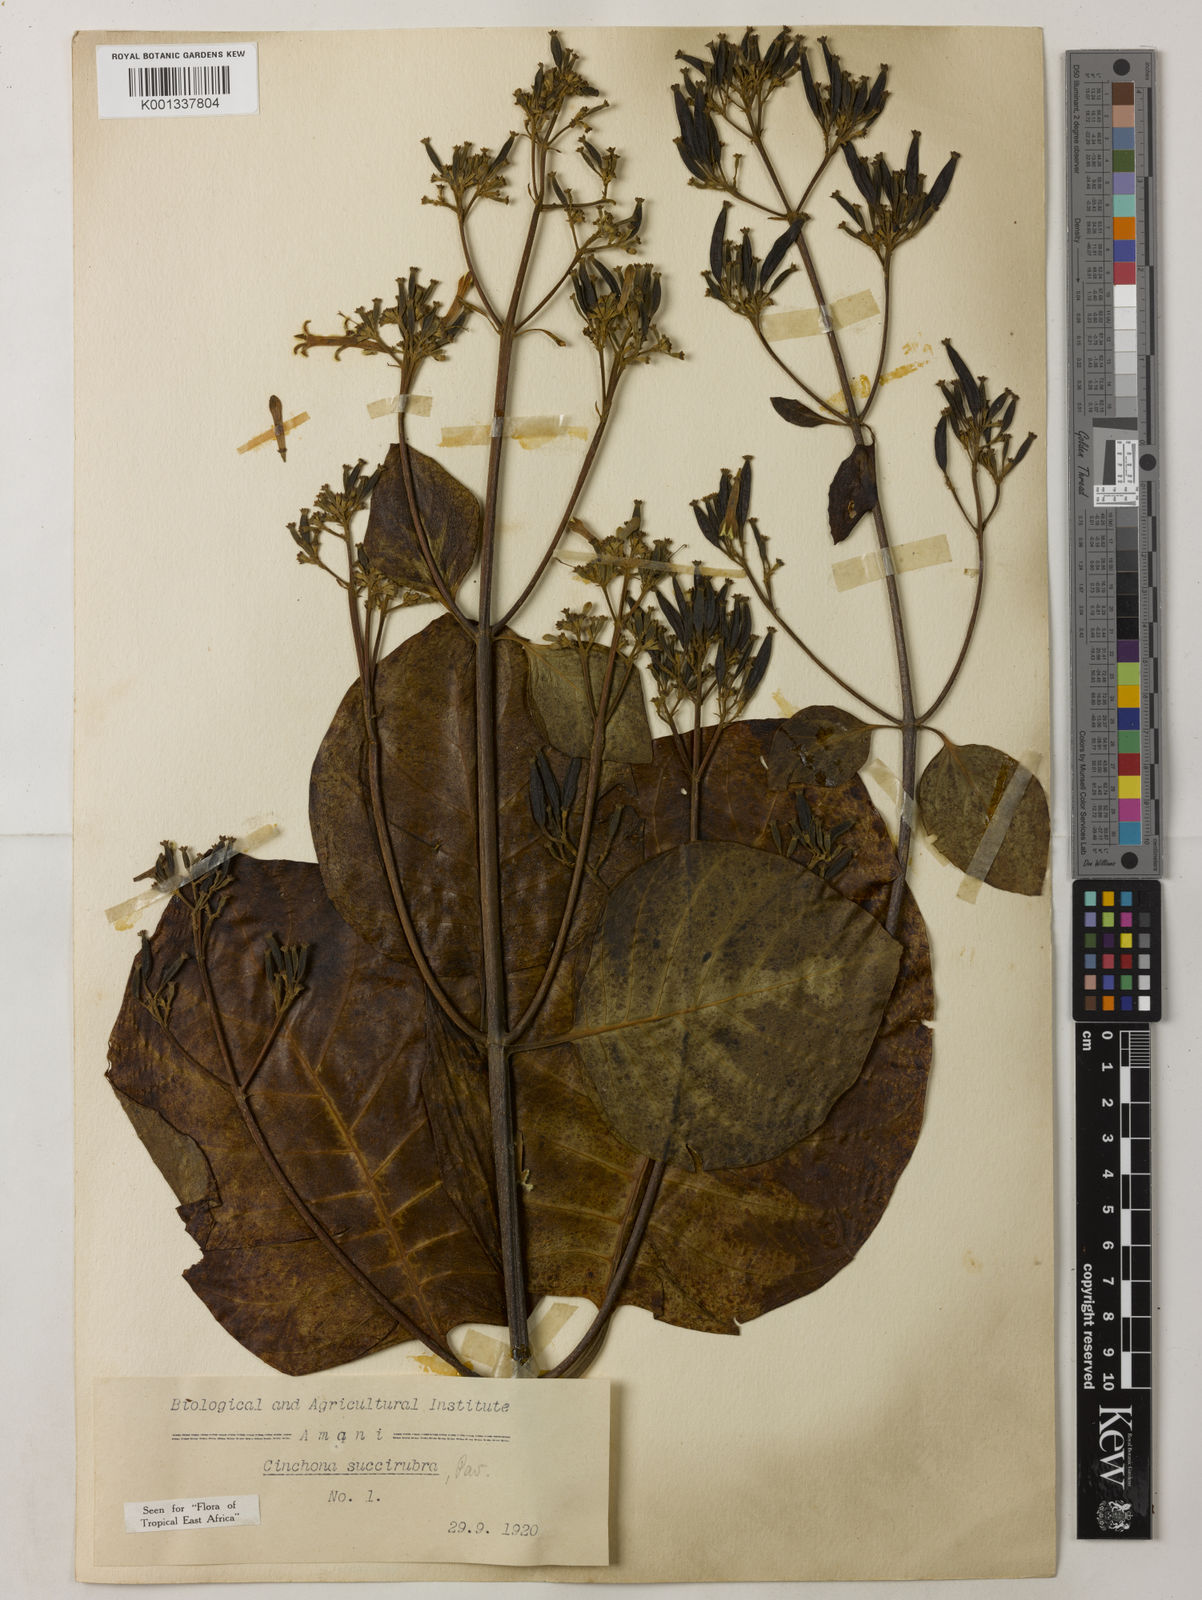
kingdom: Plantae
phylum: Tracheophyta
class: Magnoliopsida
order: Gentianales
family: Rubiaceae
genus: Cinchona
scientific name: Cinchona pubescens
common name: Quinine
